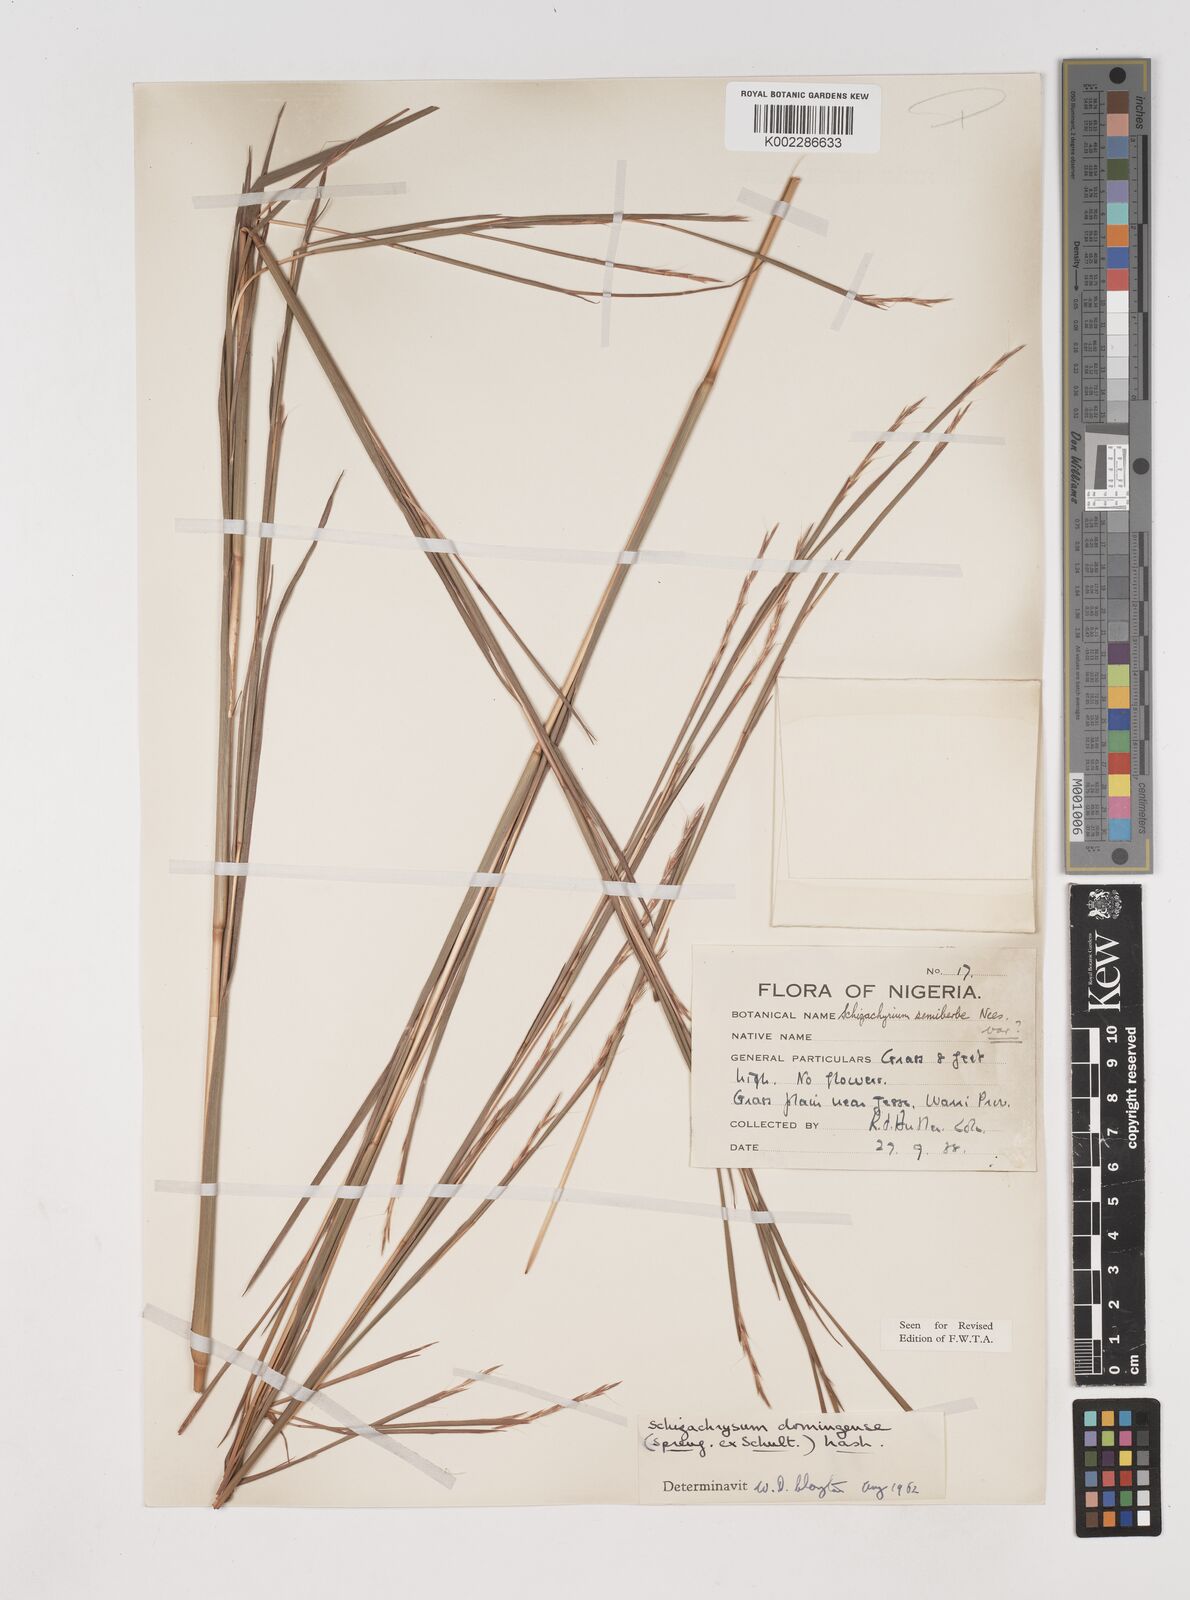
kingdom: Plantae
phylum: Tracheophyta
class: Liliopsida
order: Poales
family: Poaceae
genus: Schizachyrium
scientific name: Schizachyrium sanguineum
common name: Crimson bluestem
